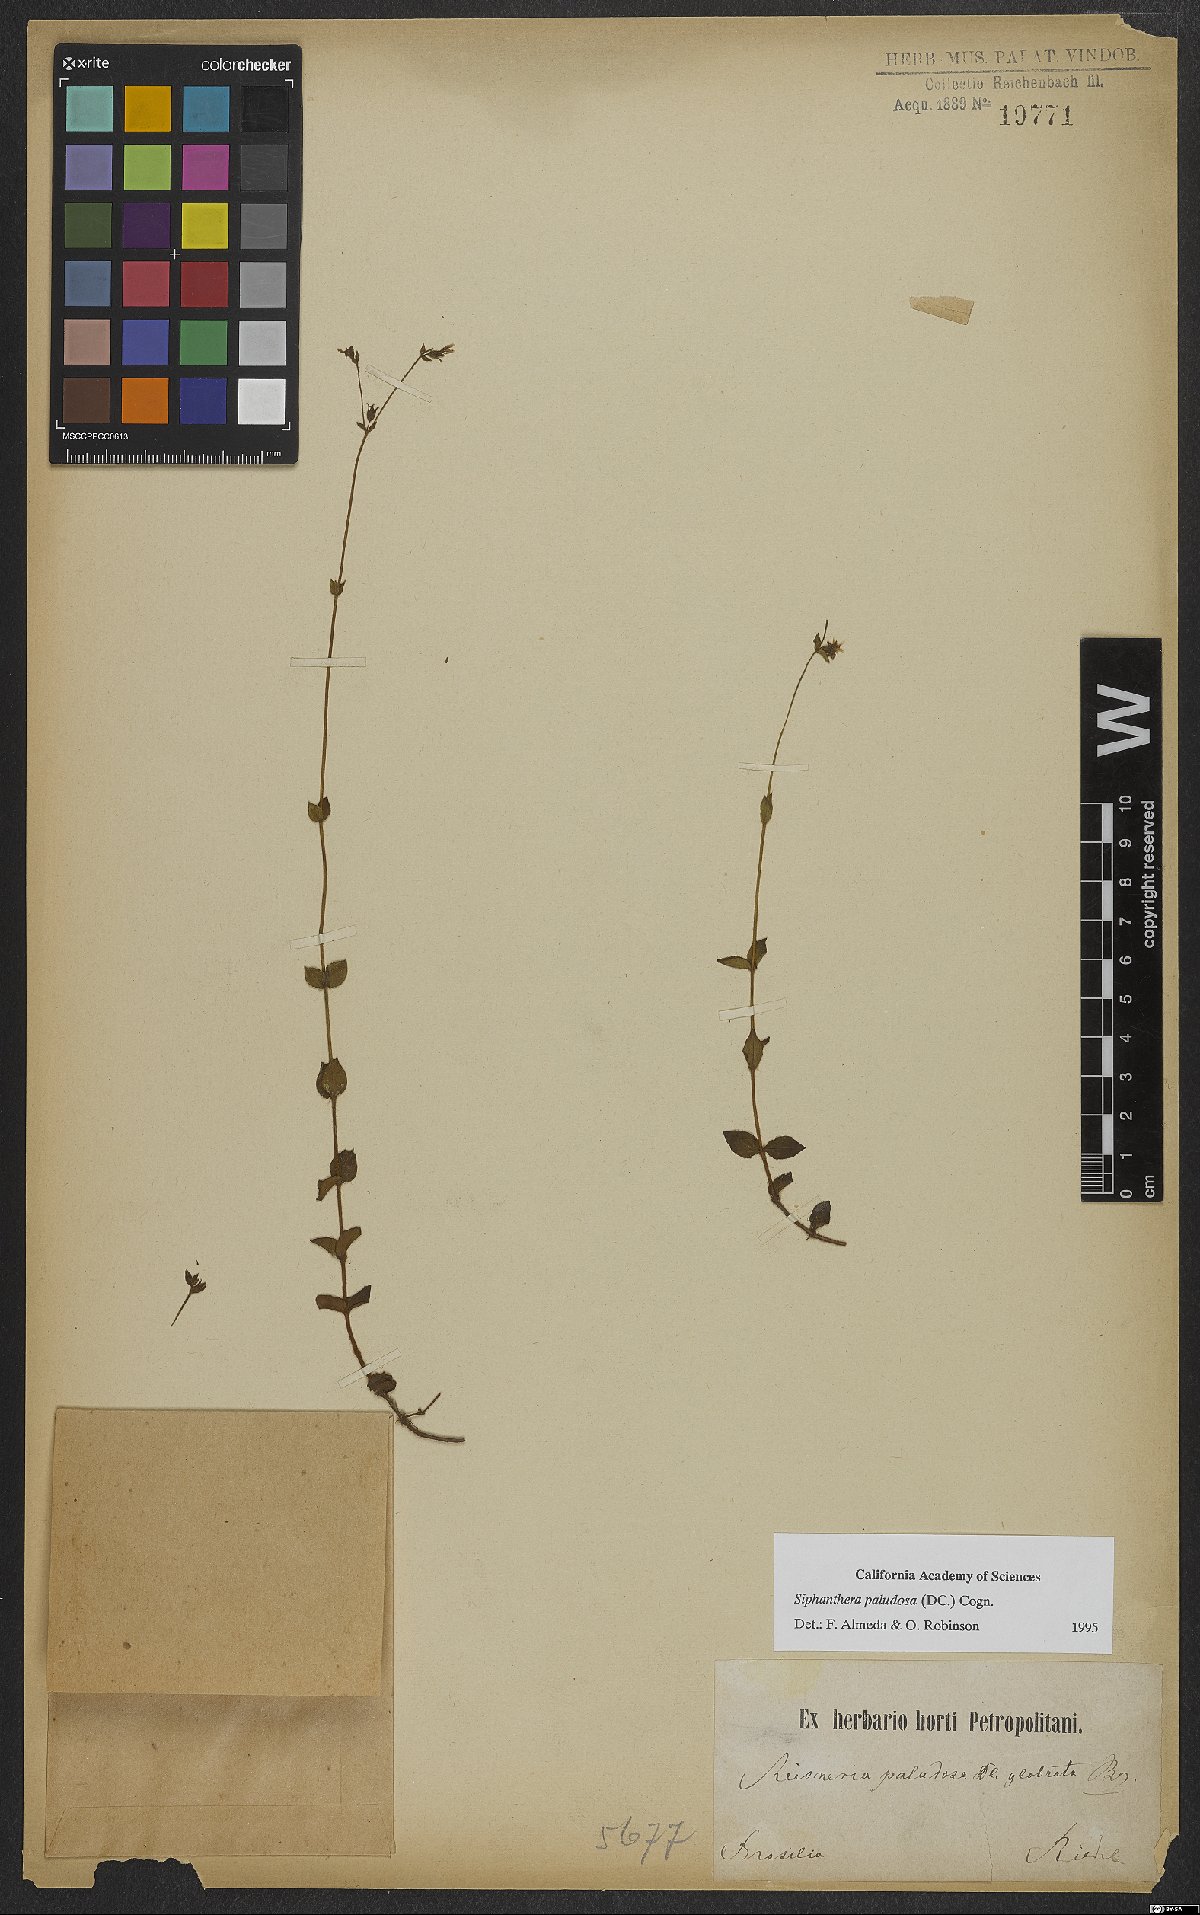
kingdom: Plantae
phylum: Tracheophyta
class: Magnoliopsida
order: Myrtales
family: Melastomataceae
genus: Siphanthera
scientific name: Siphanthera paludosa
